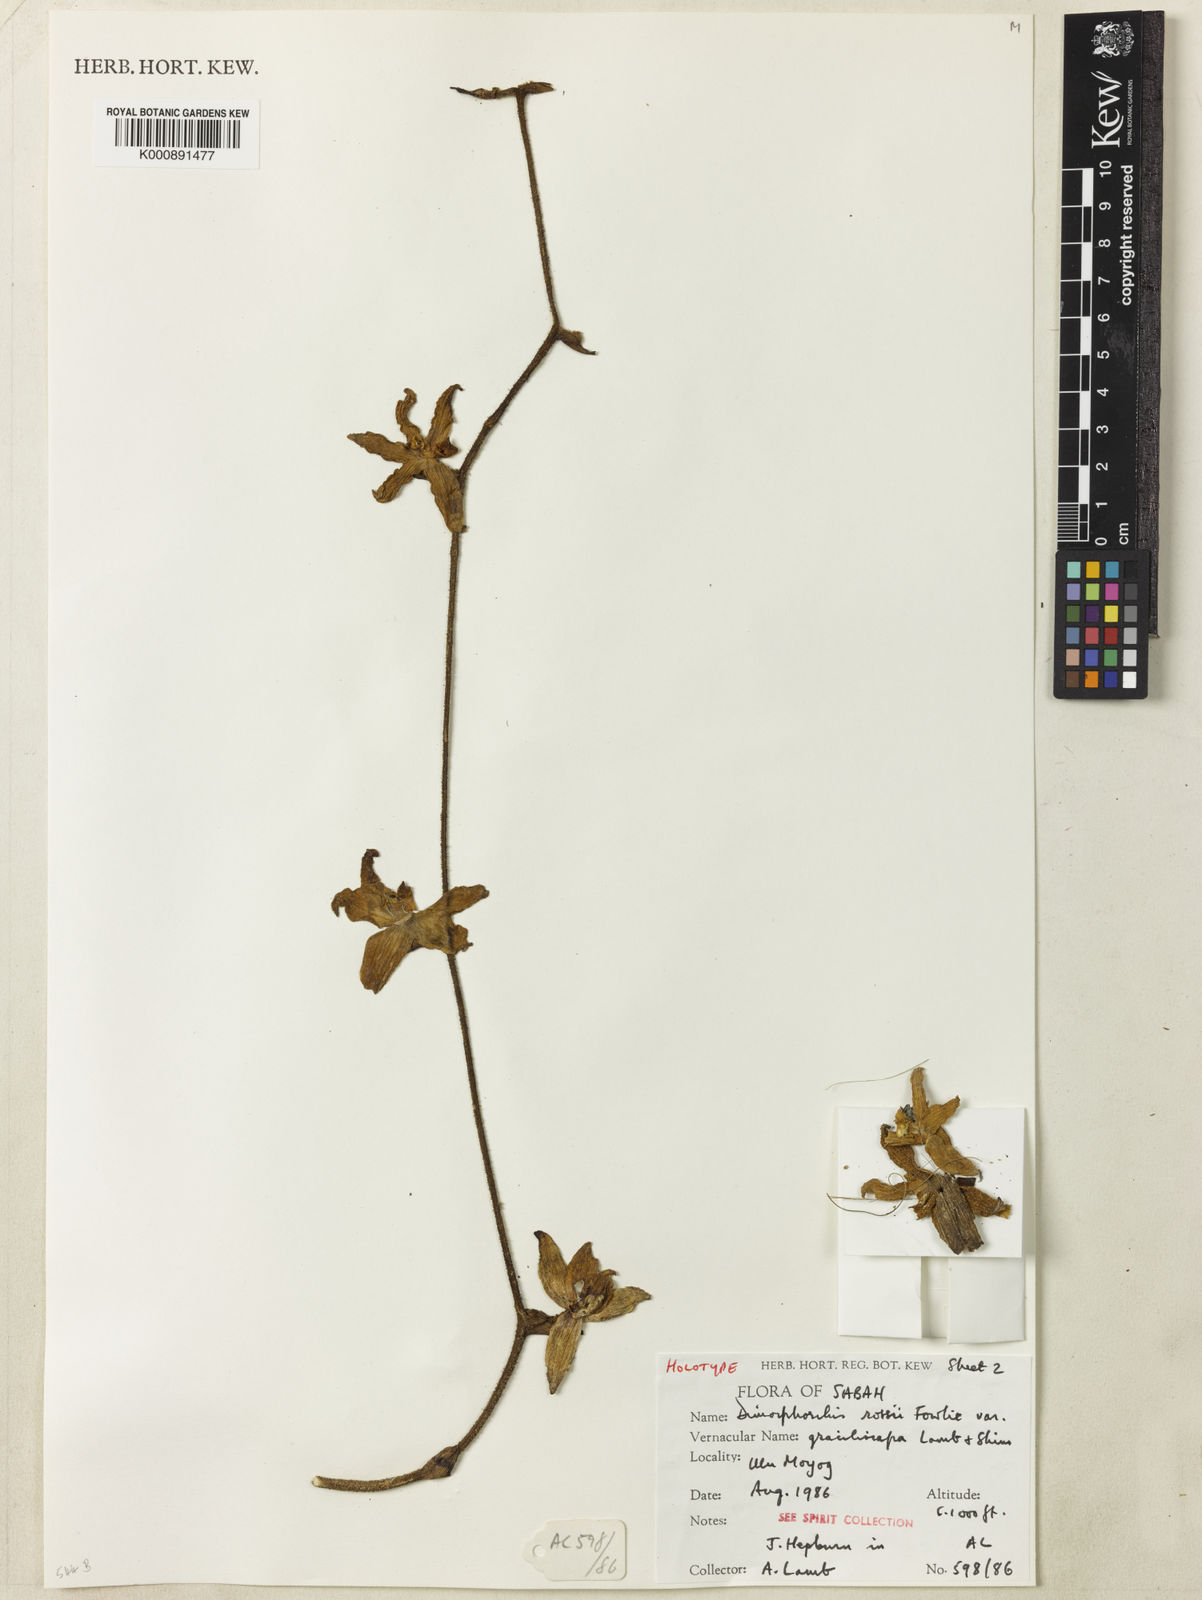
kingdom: Plantae
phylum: Tracheophyta
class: Liliopsida
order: Asparagales
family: Orchidaceae
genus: Dimorphorchis
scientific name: Dimorphorchis graciliscapa
